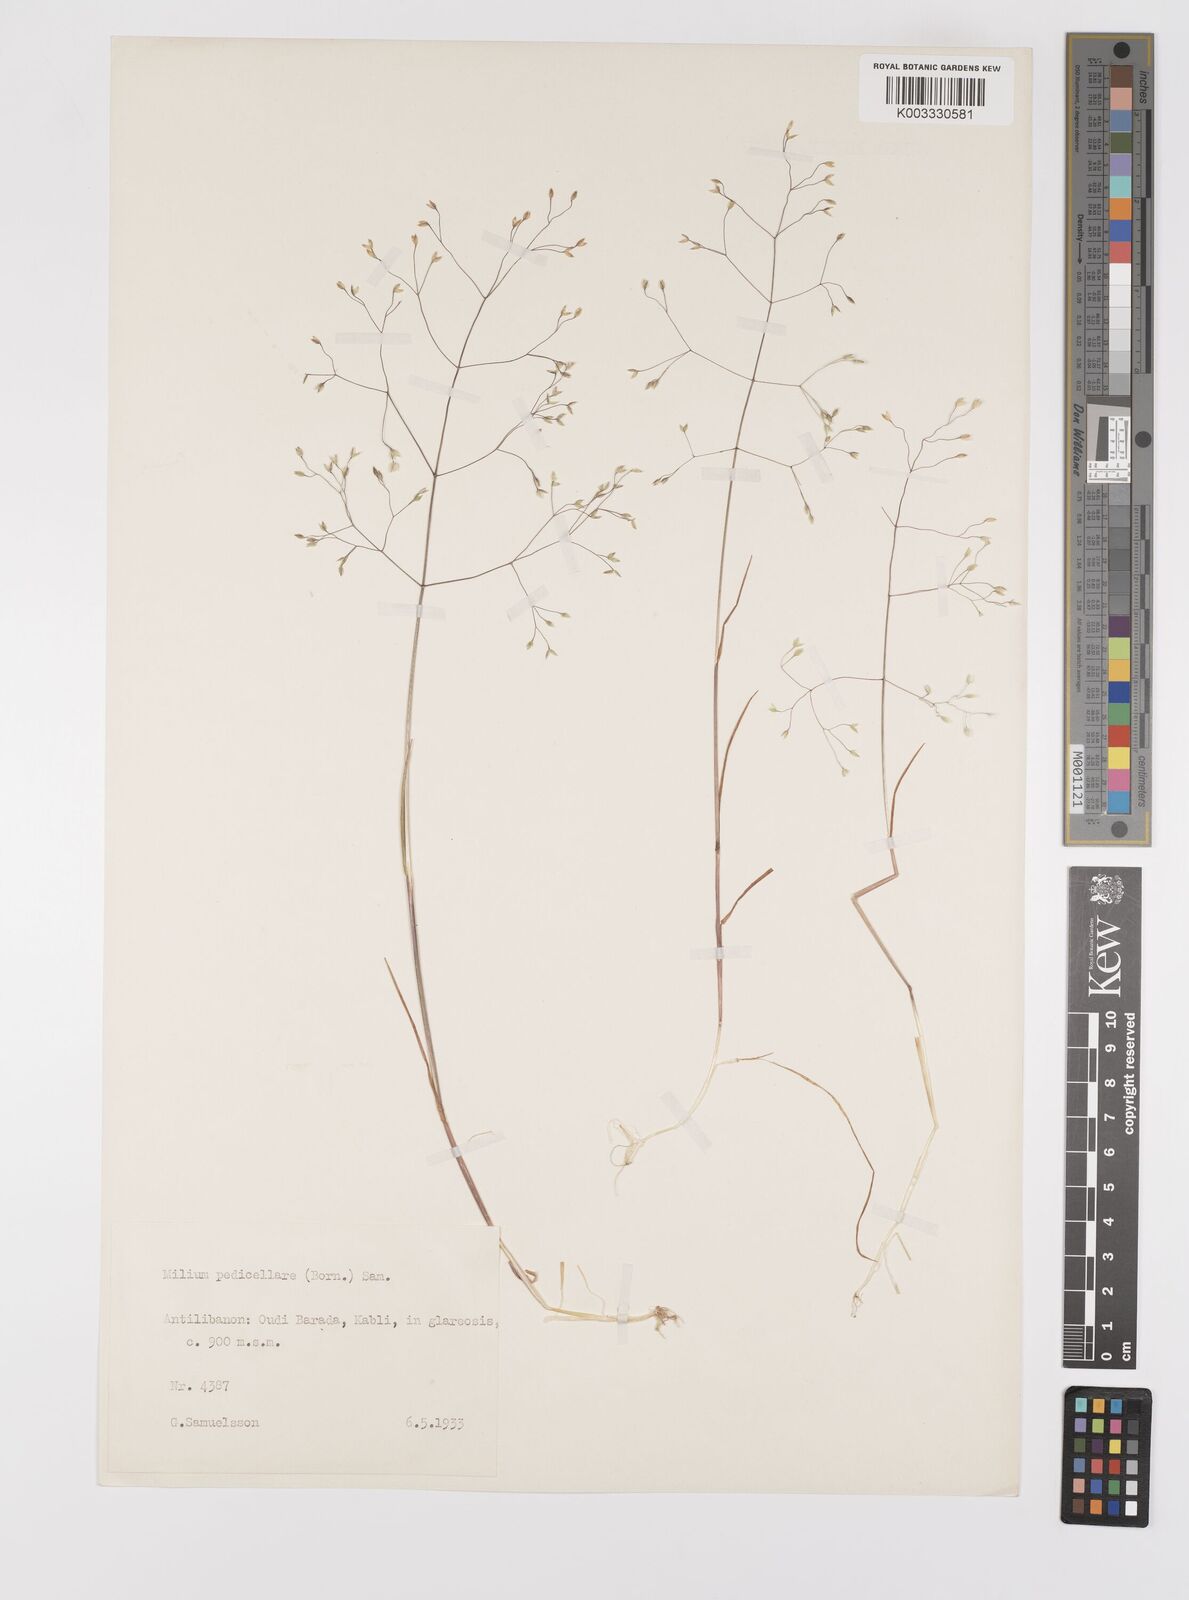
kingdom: Plantae
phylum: Tracheophyta
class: Liliopsida
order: Poales
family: Poaceae
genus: Milium
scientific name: Milium pedicellare
